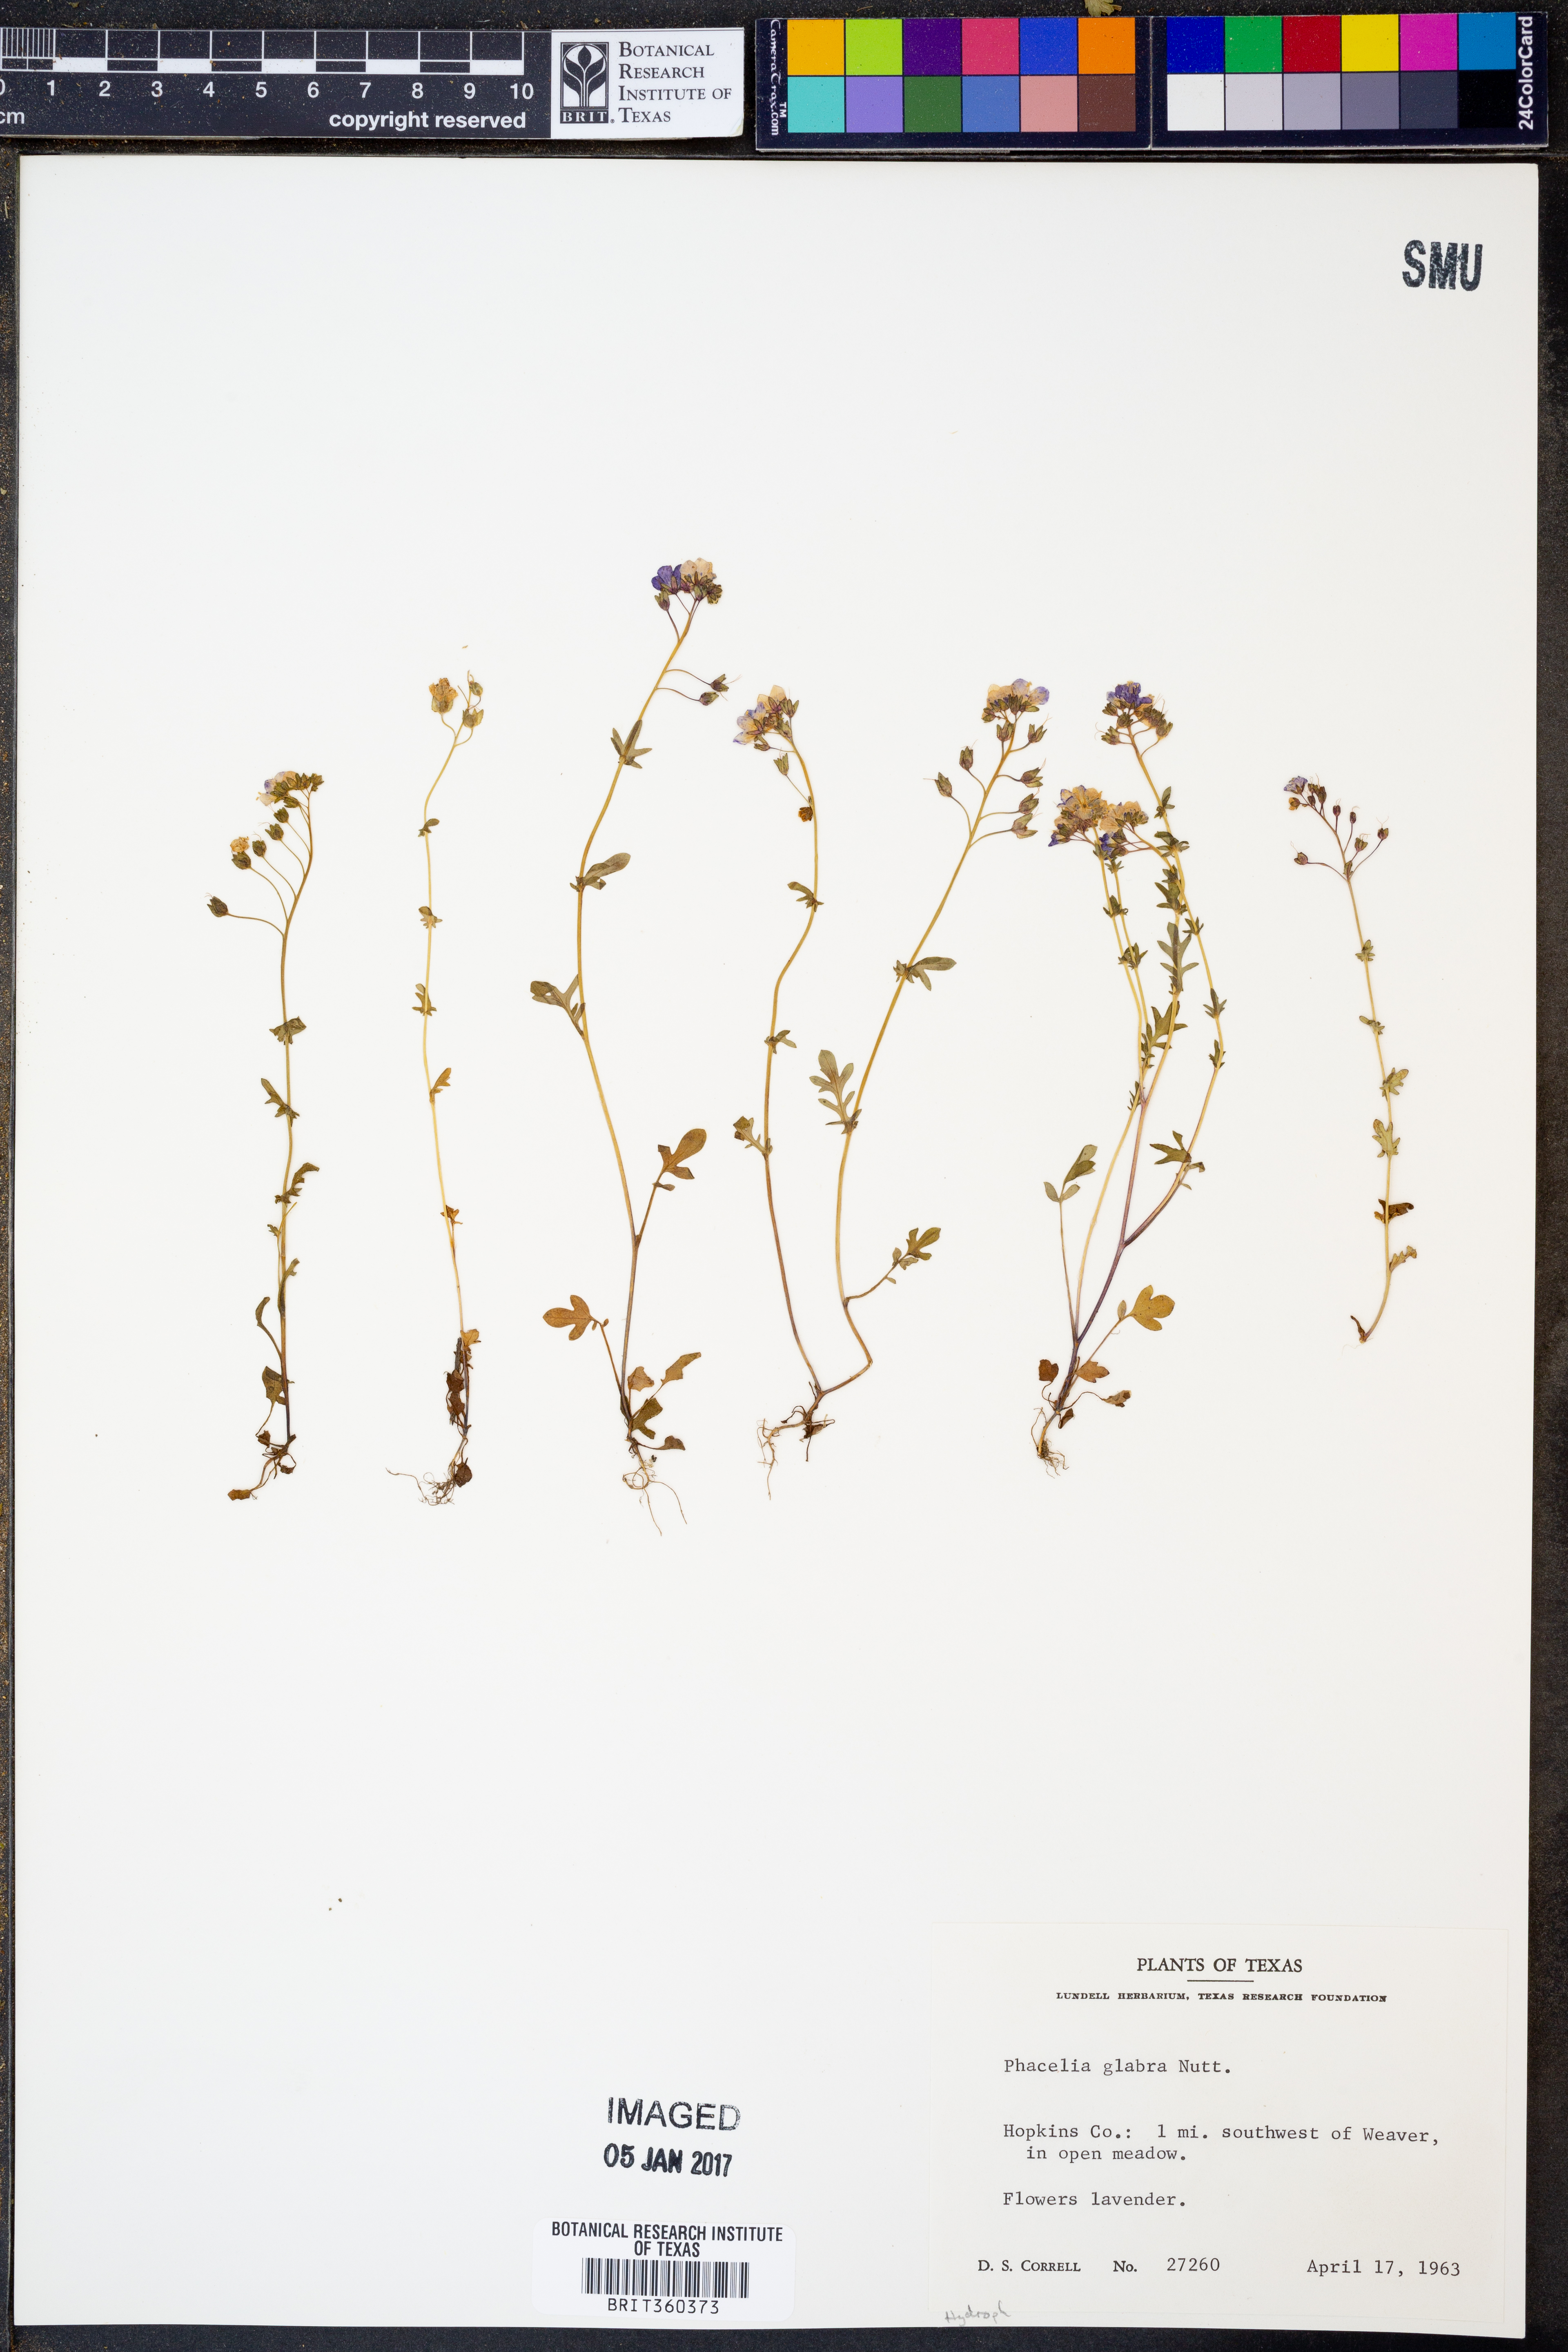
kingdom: Plantae
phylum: Tracheophyta
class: Magnoliopsida
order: Boraginales
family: Hydrophyllaceae
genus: Phacelia
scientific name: Phacelia glabra
